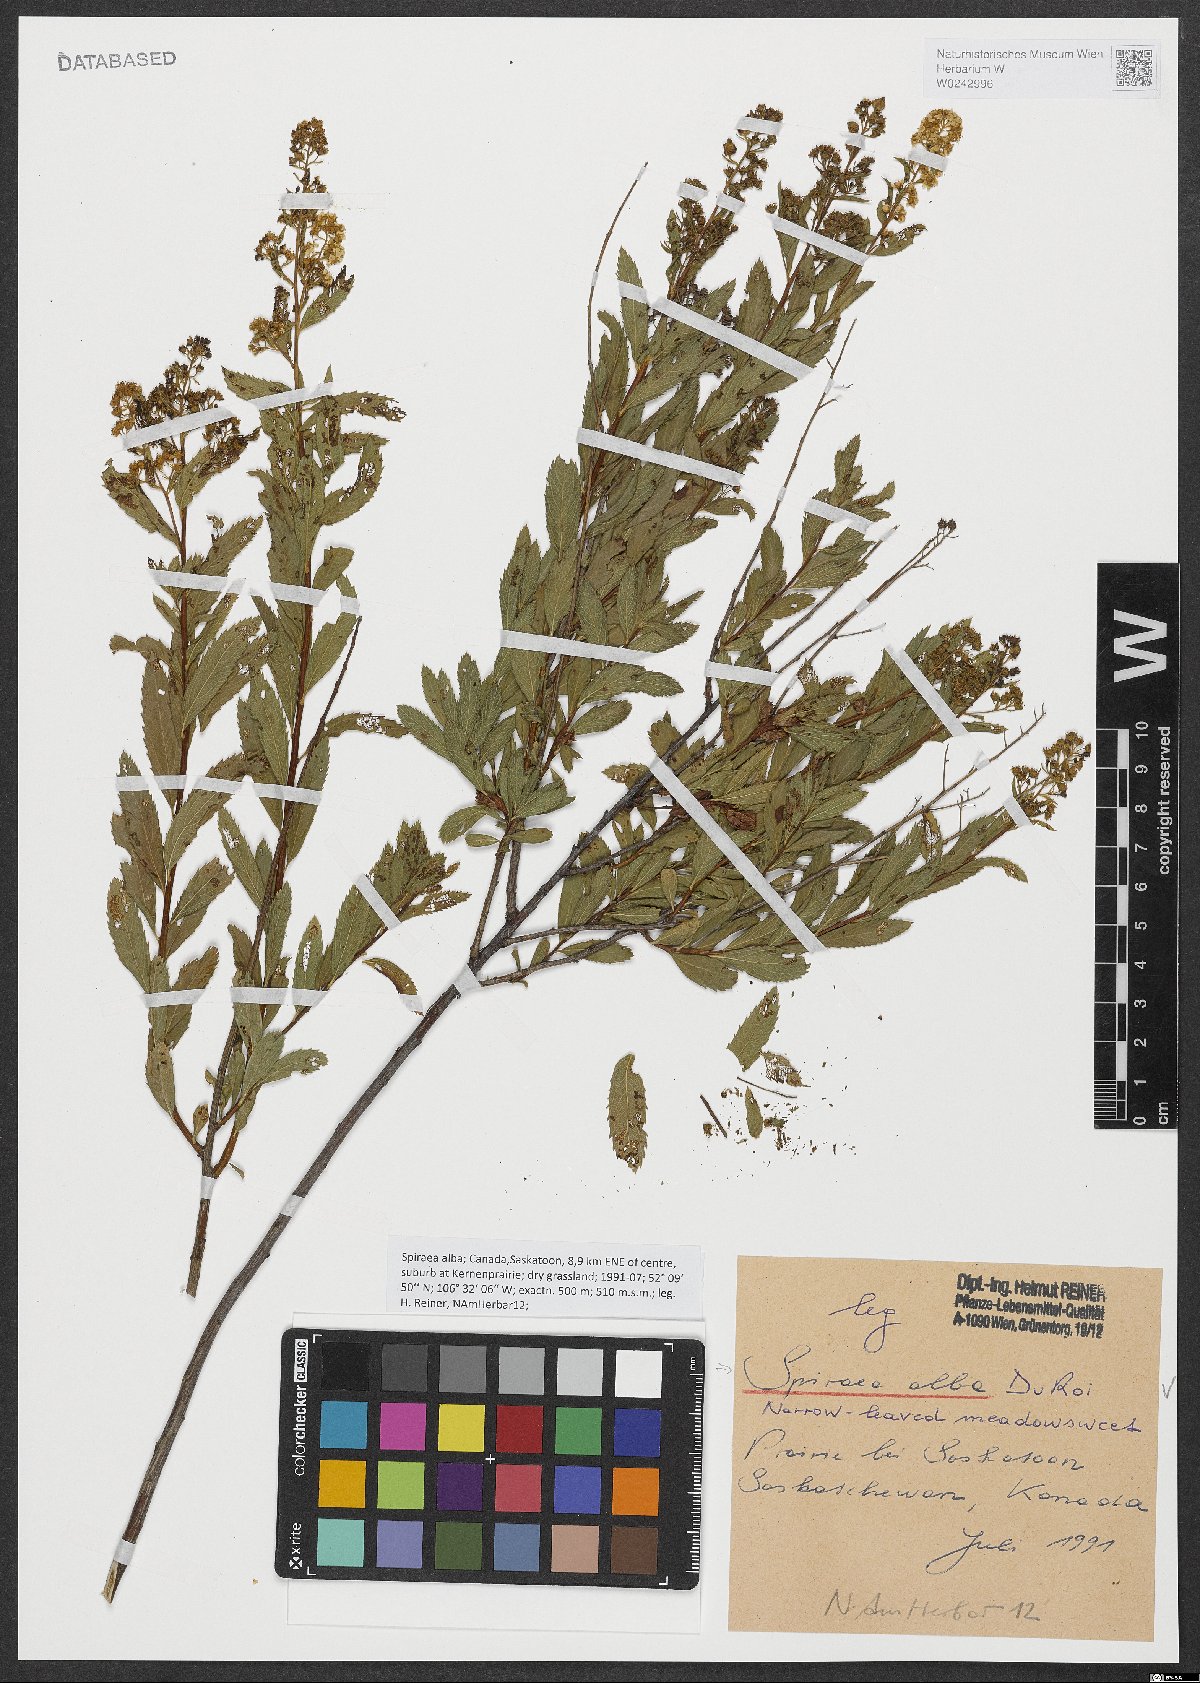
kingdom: Plantae
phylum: Tracheophyta
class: Magnoliopsida
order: Rosales
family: Rosaceae
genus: Spiraea
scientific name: Spiraea alba
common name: Pale bridewort
